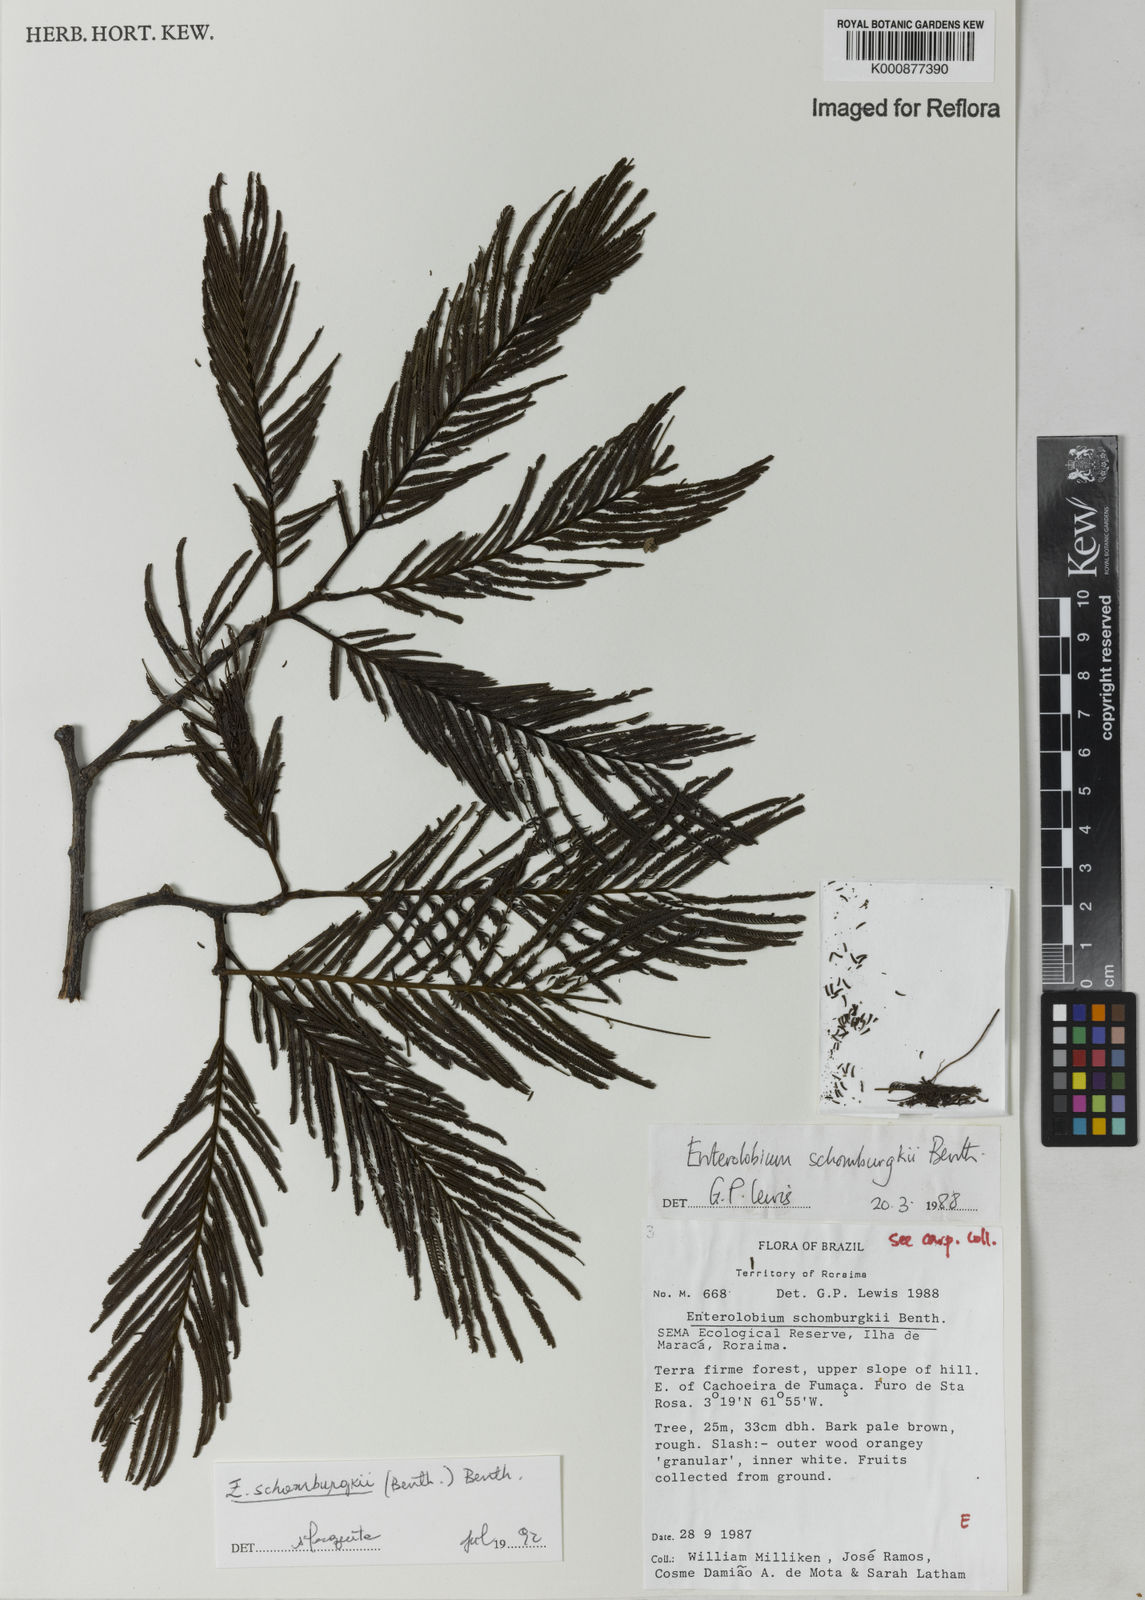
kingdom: Plantae
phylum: Tracheophyta
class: Magnoliopsida
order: Fabales
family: Fabaceae
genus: Enterolobium
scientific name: Enterolobium schomburgkii
